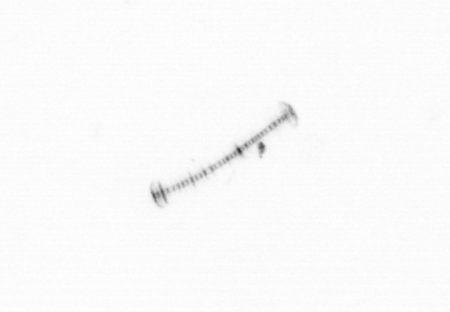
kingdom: Chromista
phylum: Ochrophyta
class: Bacillariophyceae
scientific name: Bacillariophyceae
